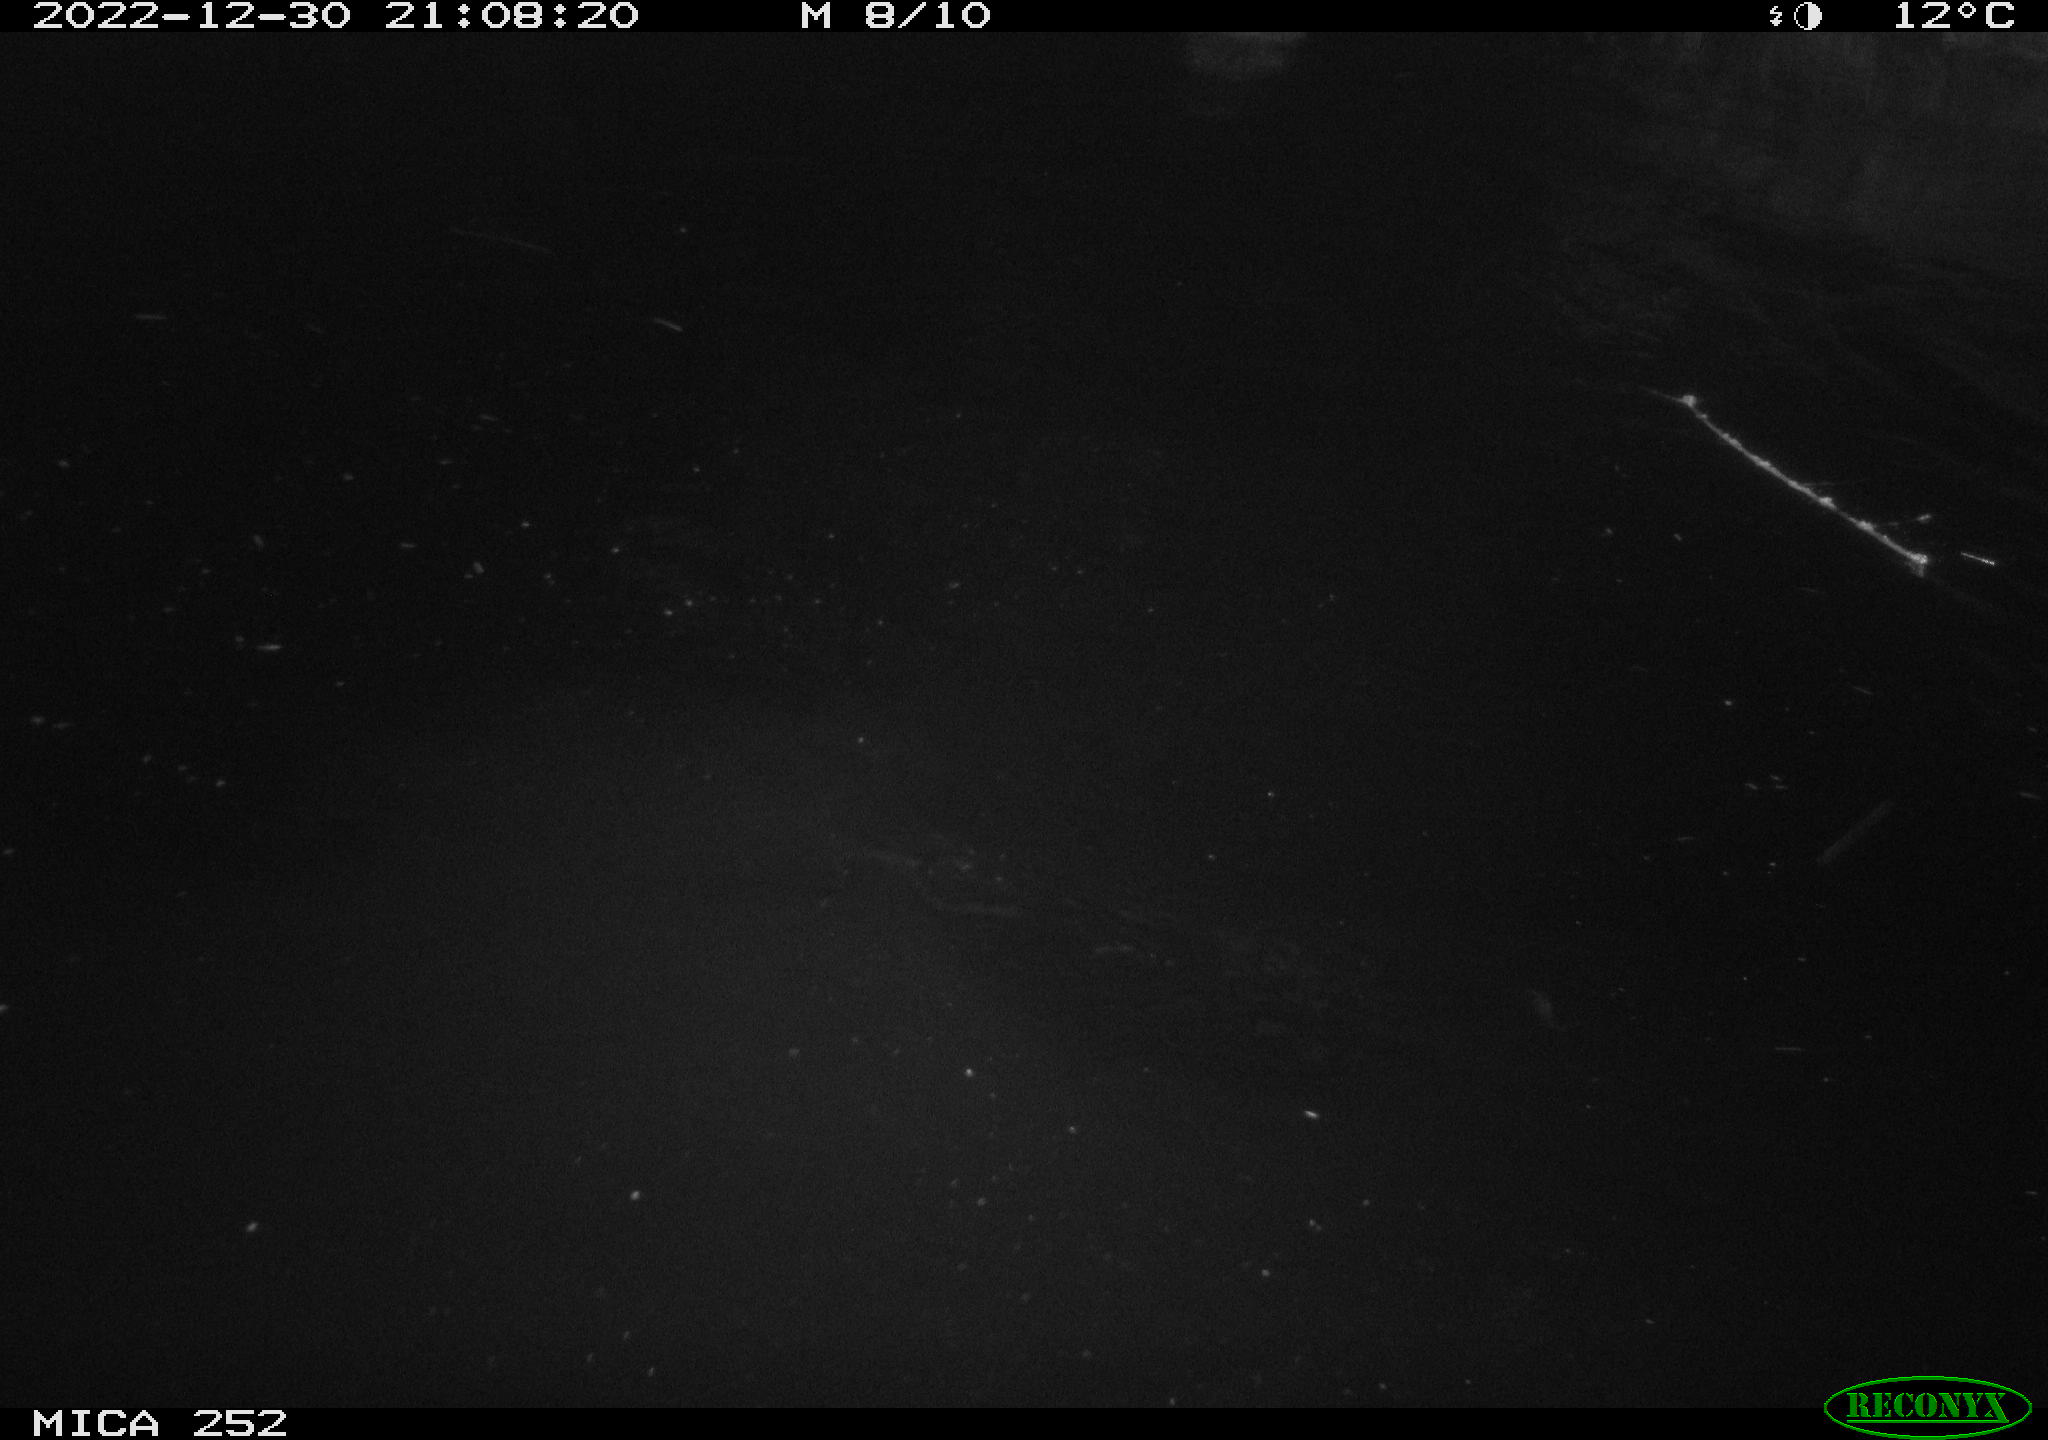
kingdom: Animalia
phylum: Chordata
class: Mammalia
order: Rodentia
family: Castoridae
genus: Castor
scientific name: Castor fiber
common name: Eurasian beaver
